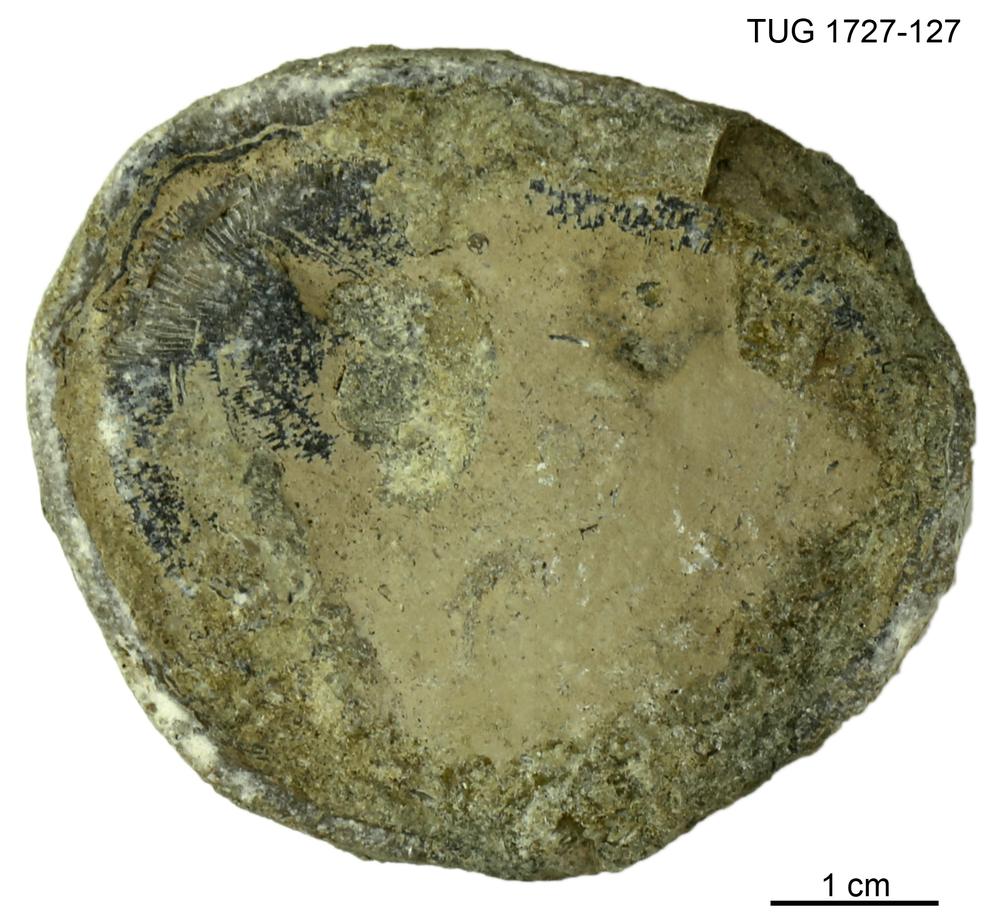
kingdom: Animalia
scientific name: Animalia
